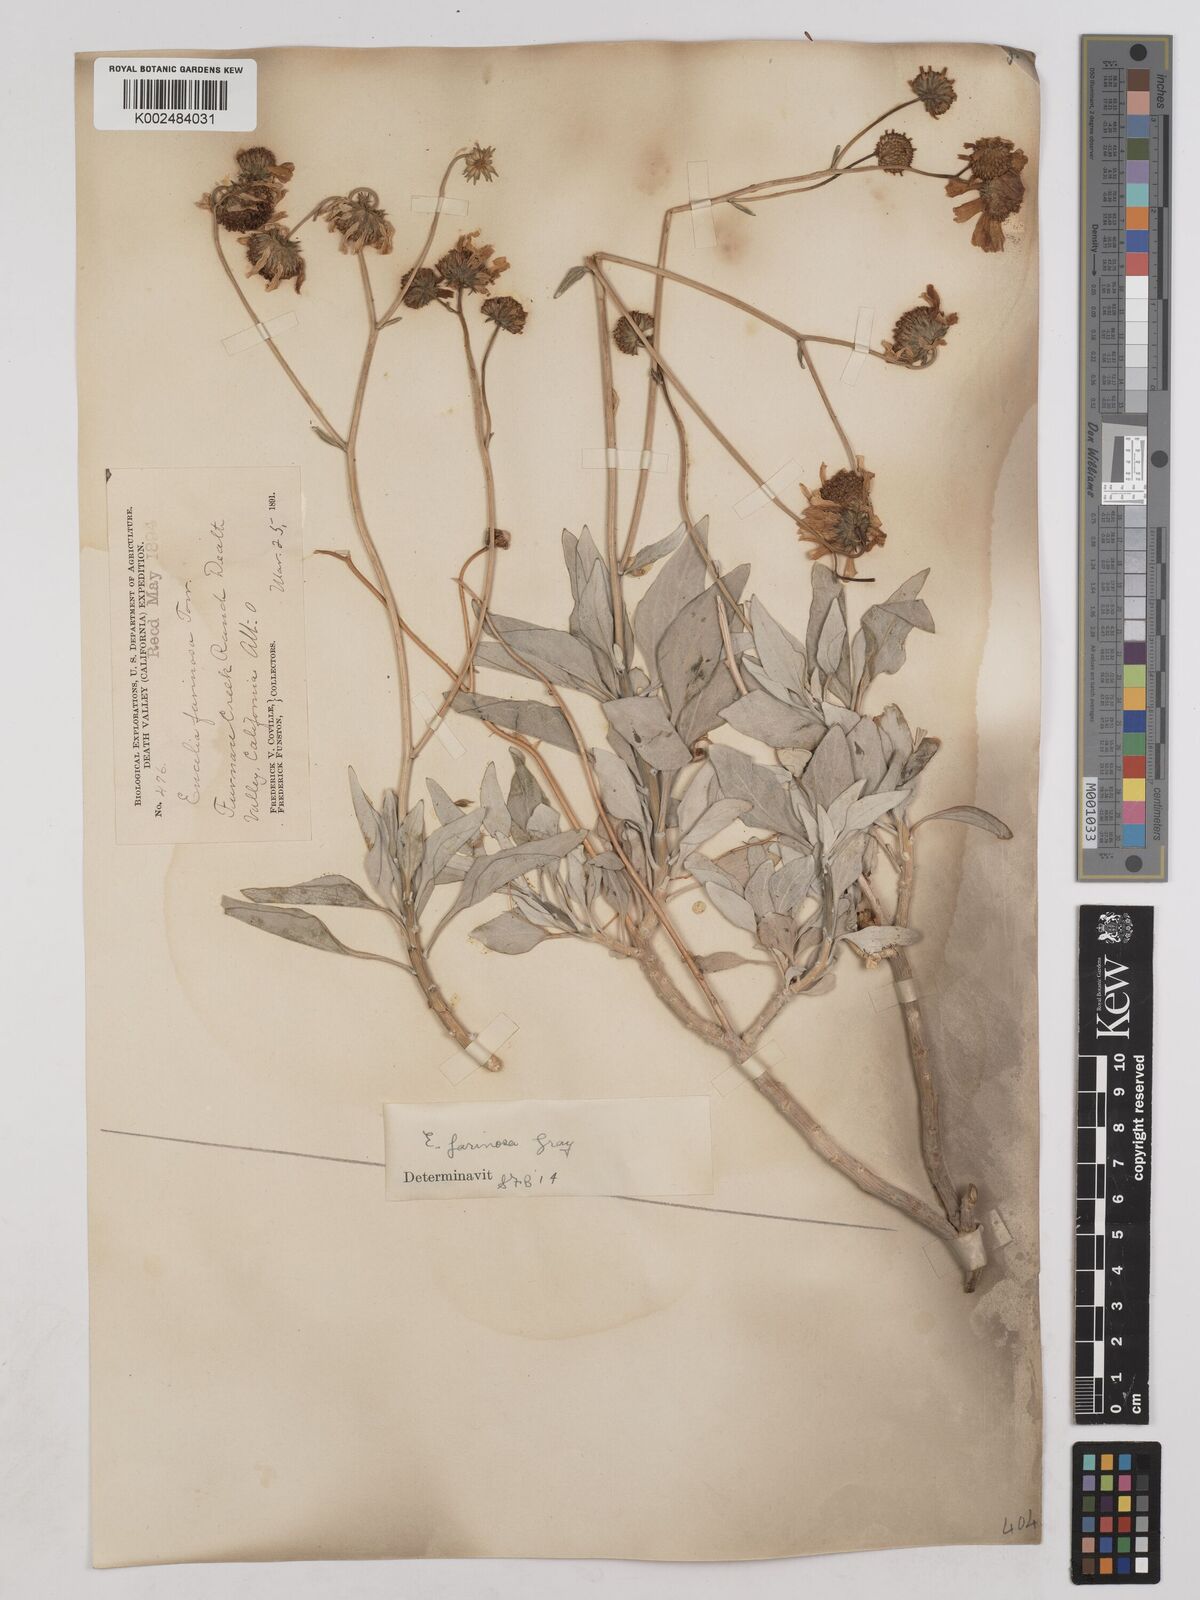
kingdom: Plantae
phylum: Tracheophyta
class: Magnoliopsida
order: Asterales
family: Asteraceae
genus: Encelia
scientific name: Encelia farinosa
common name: Brittlebush
